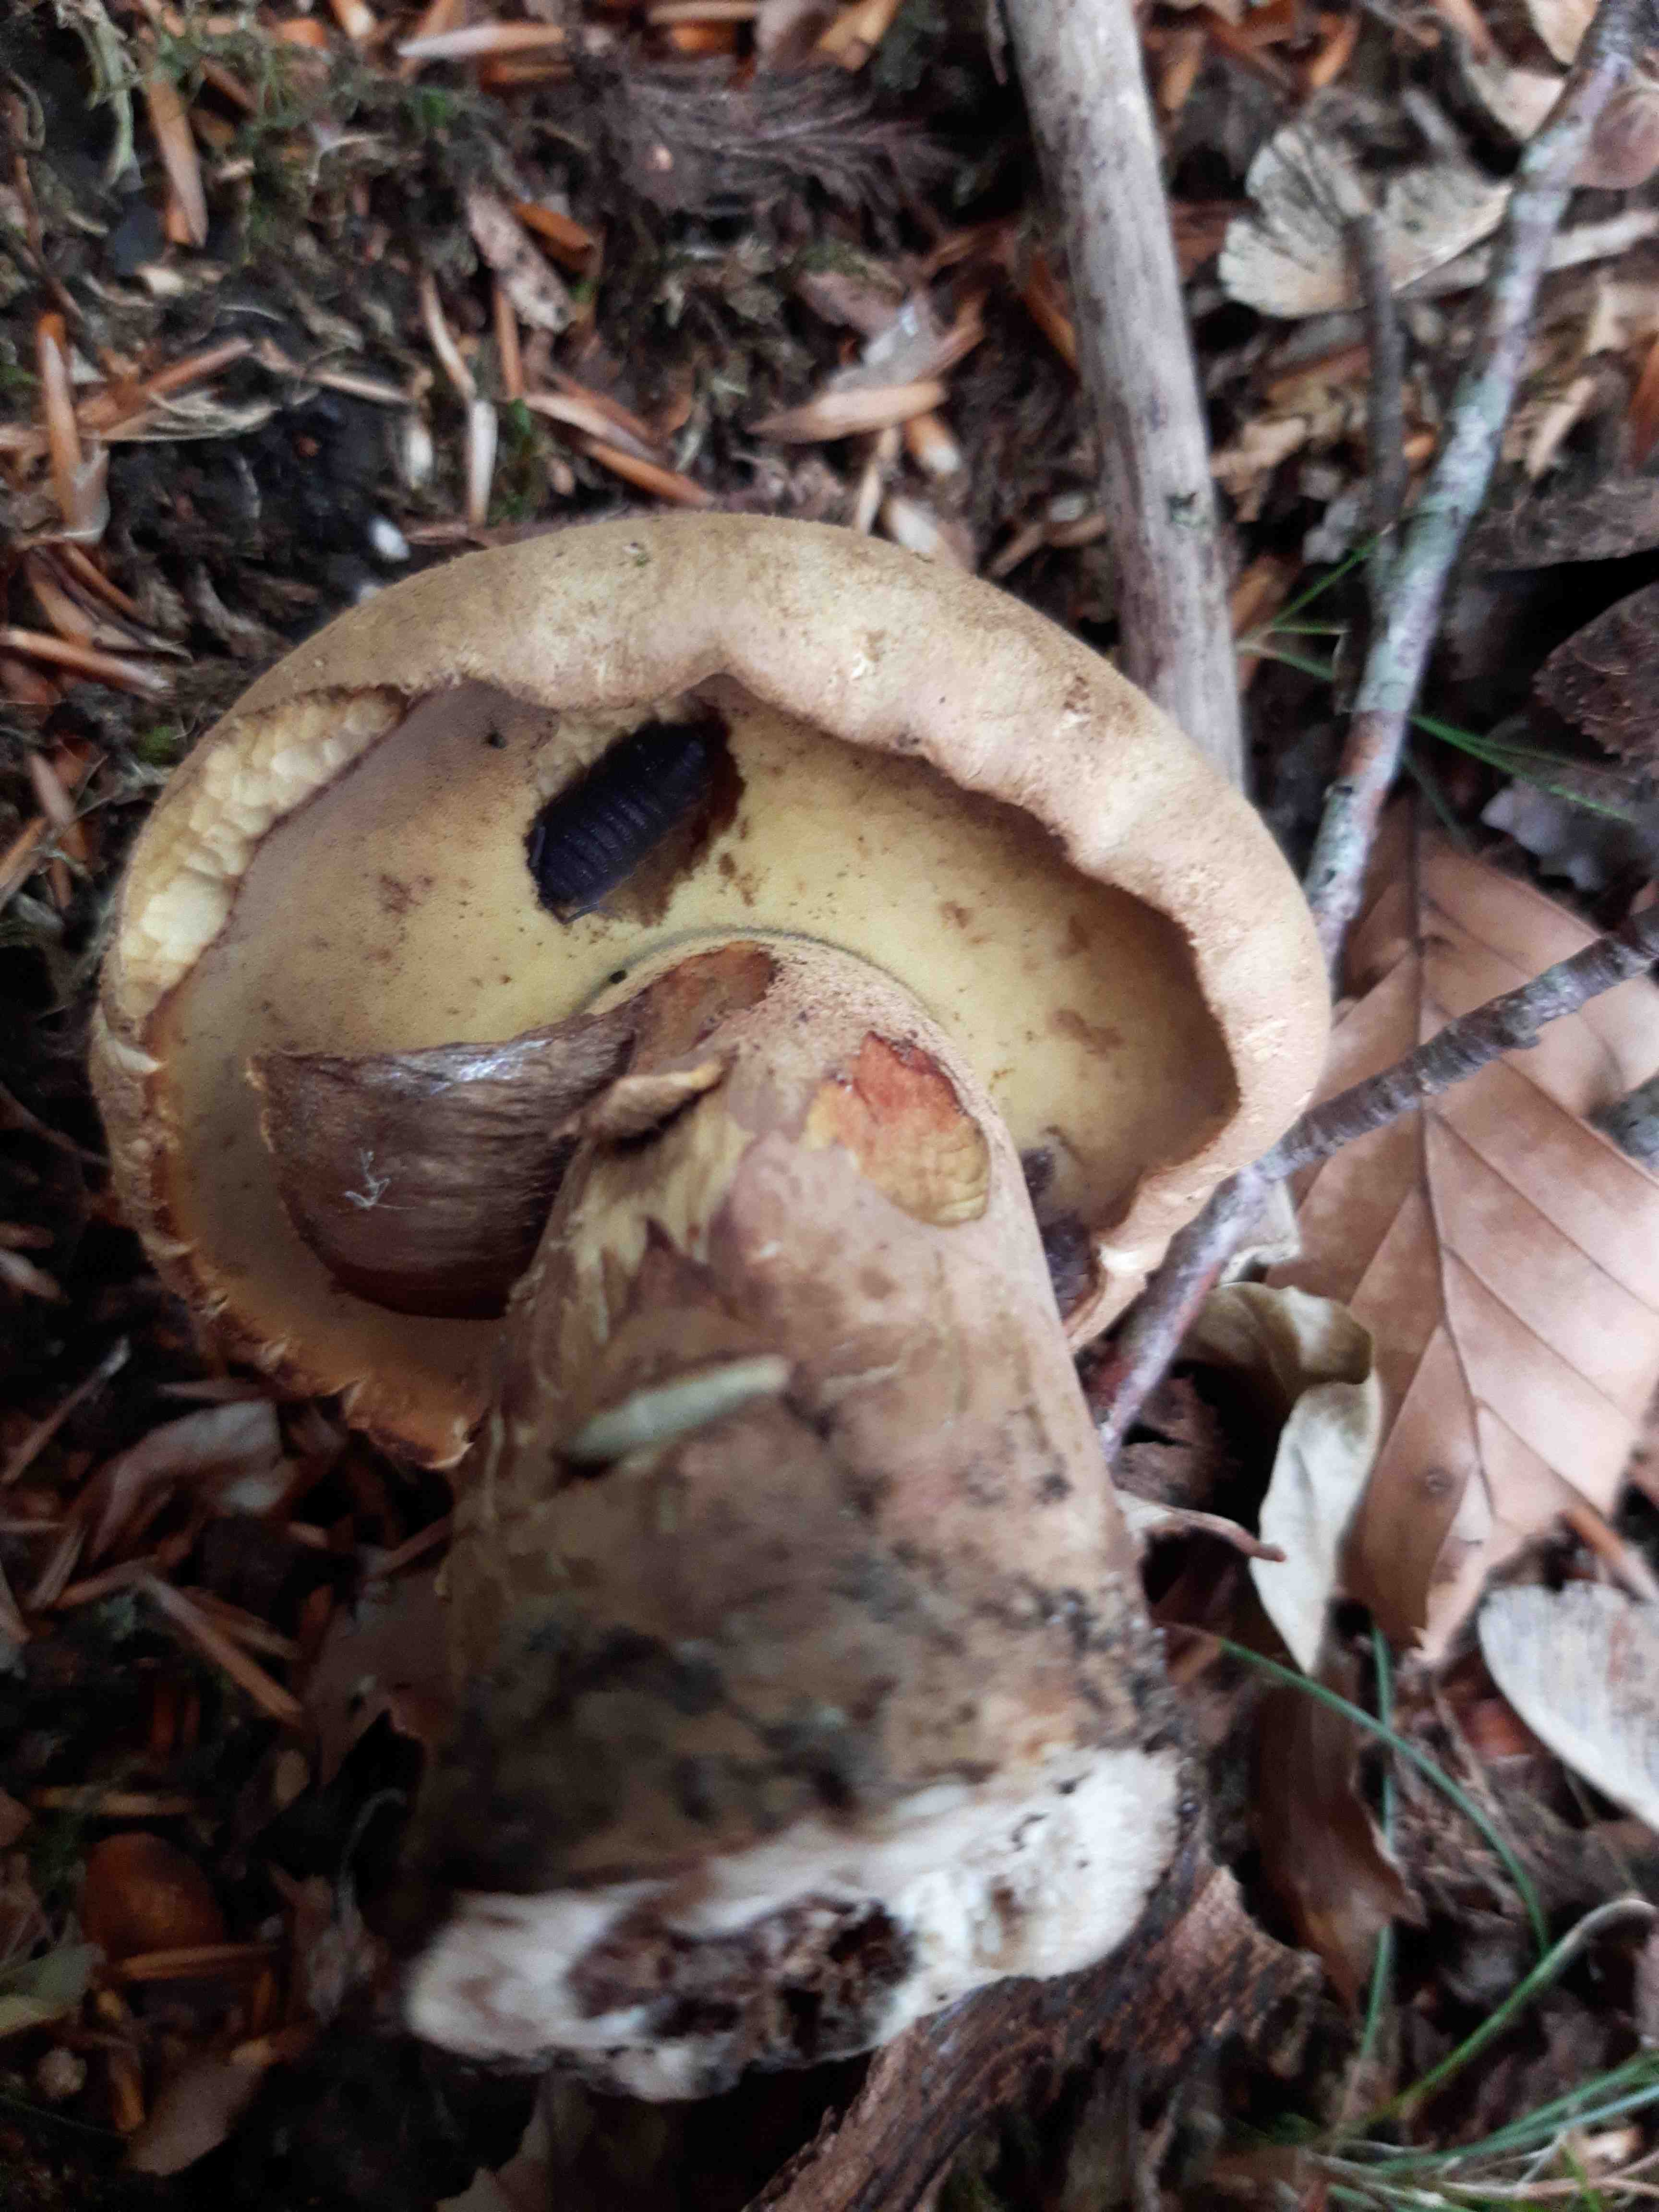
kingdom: Fungi
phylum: Basidiomycota
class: Agaricomycetes
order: Boletales
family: Boletaceae
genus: Caloboletus
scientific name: Caloboletus radicans
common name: rod-rørhat
